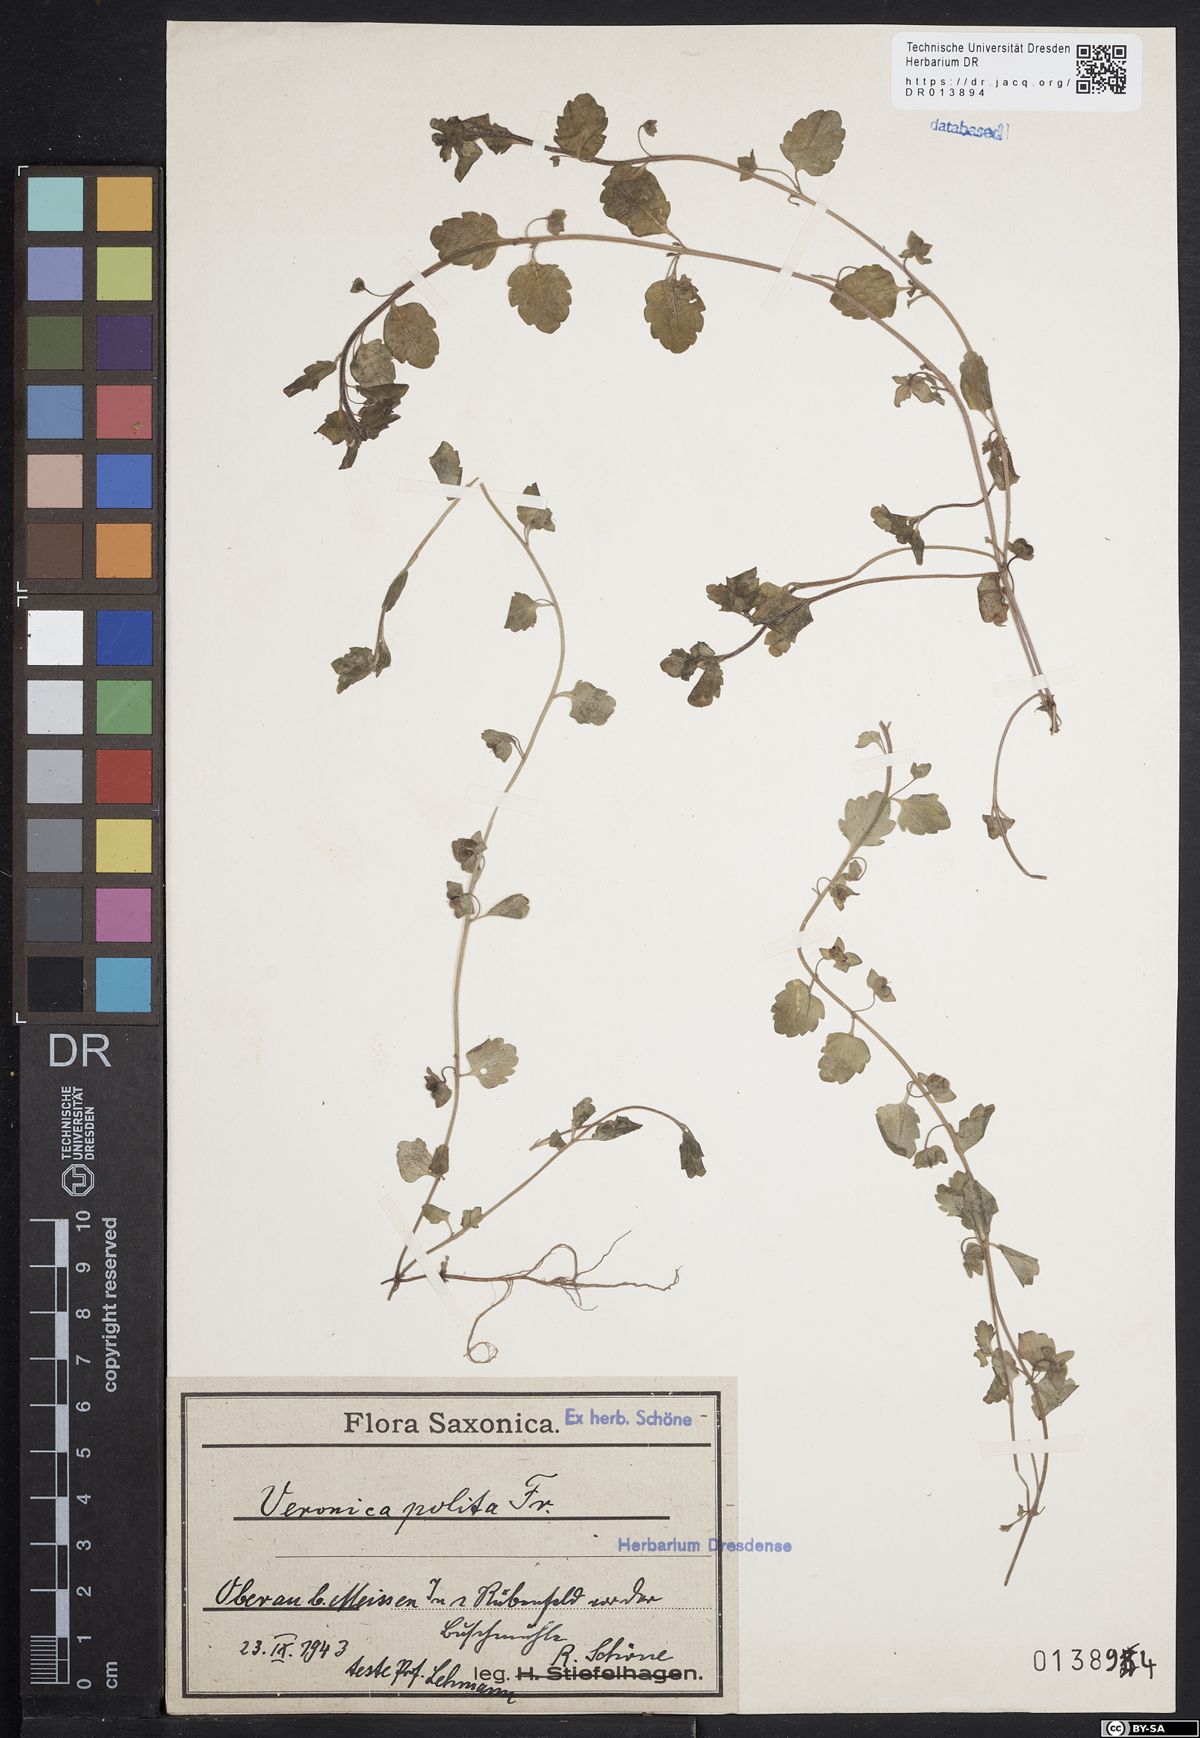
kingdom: Plantae
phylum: Tracheophyta
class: Magnoliopsida
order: Lamiales
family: Plantaginaceae
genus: Veronica
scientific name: Veronica polita
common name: Grey field-speedwell
